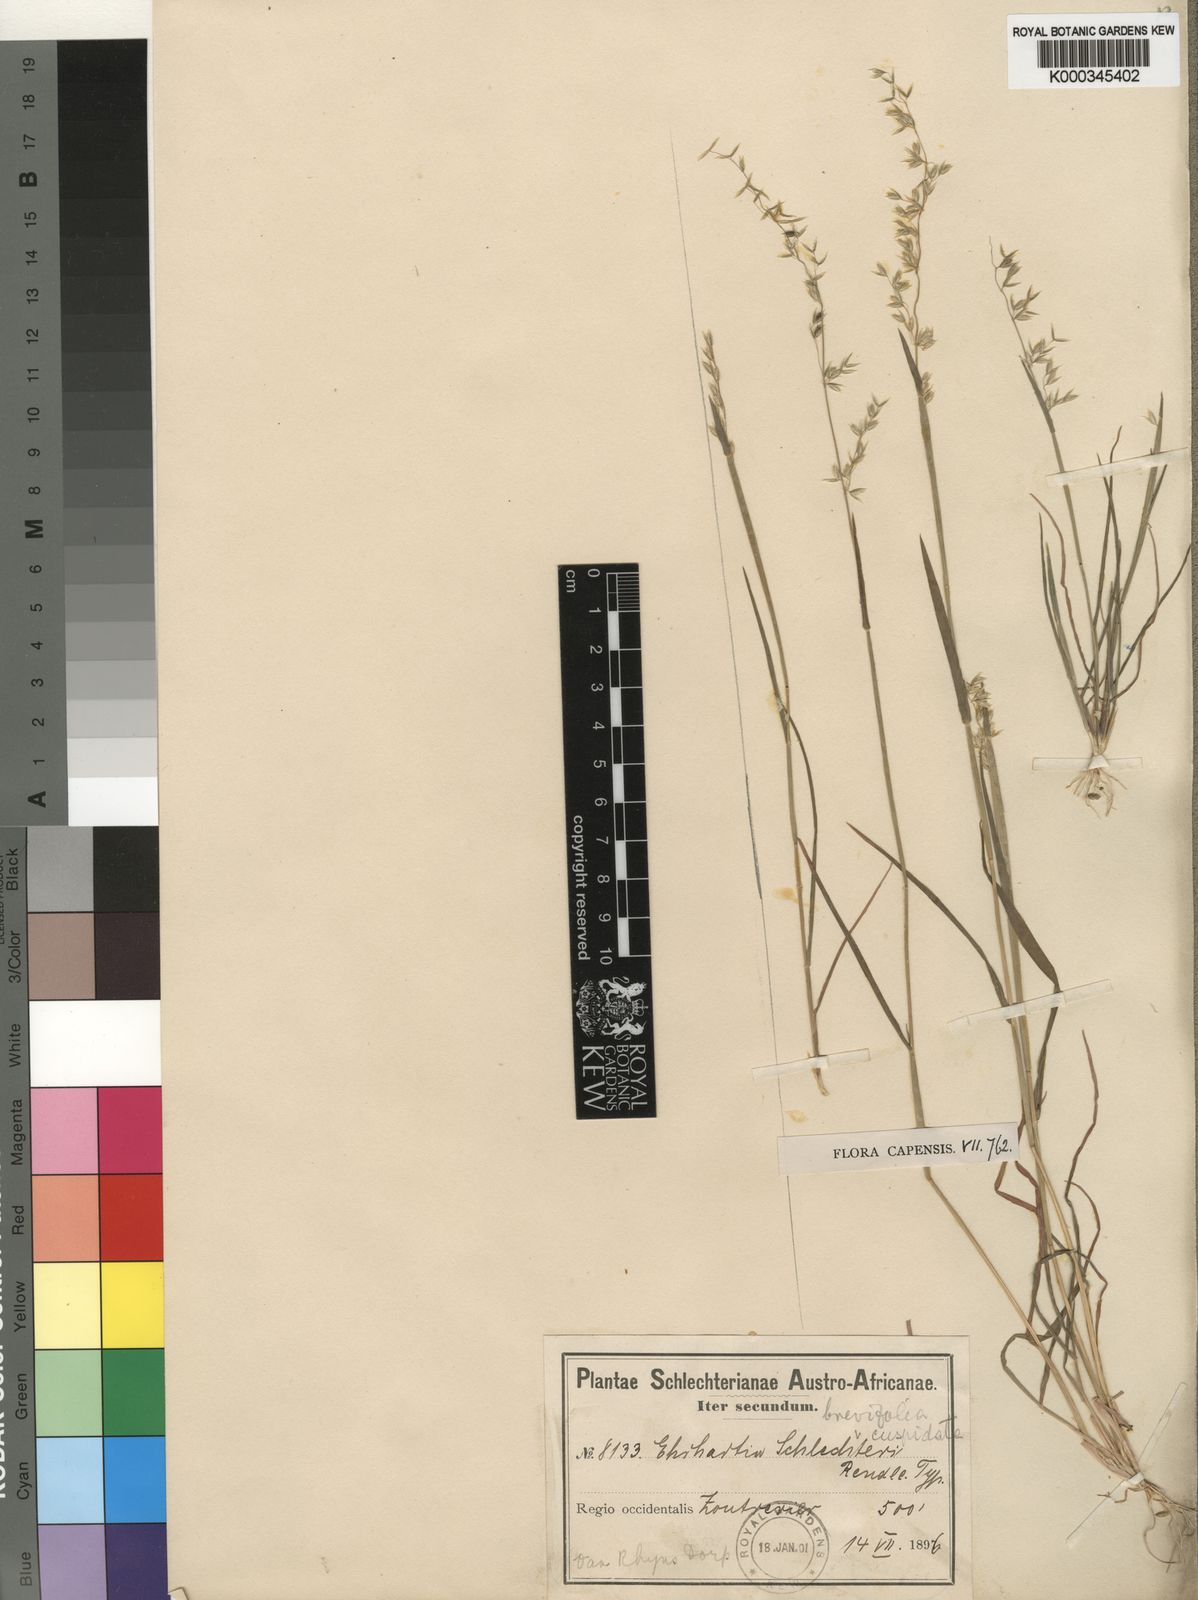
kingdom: Plantae
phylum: Tracheophyta
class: Liliopsida
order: Poales
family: Poaceae
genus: Ehrharta
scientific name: Ehrharta brevifolia
